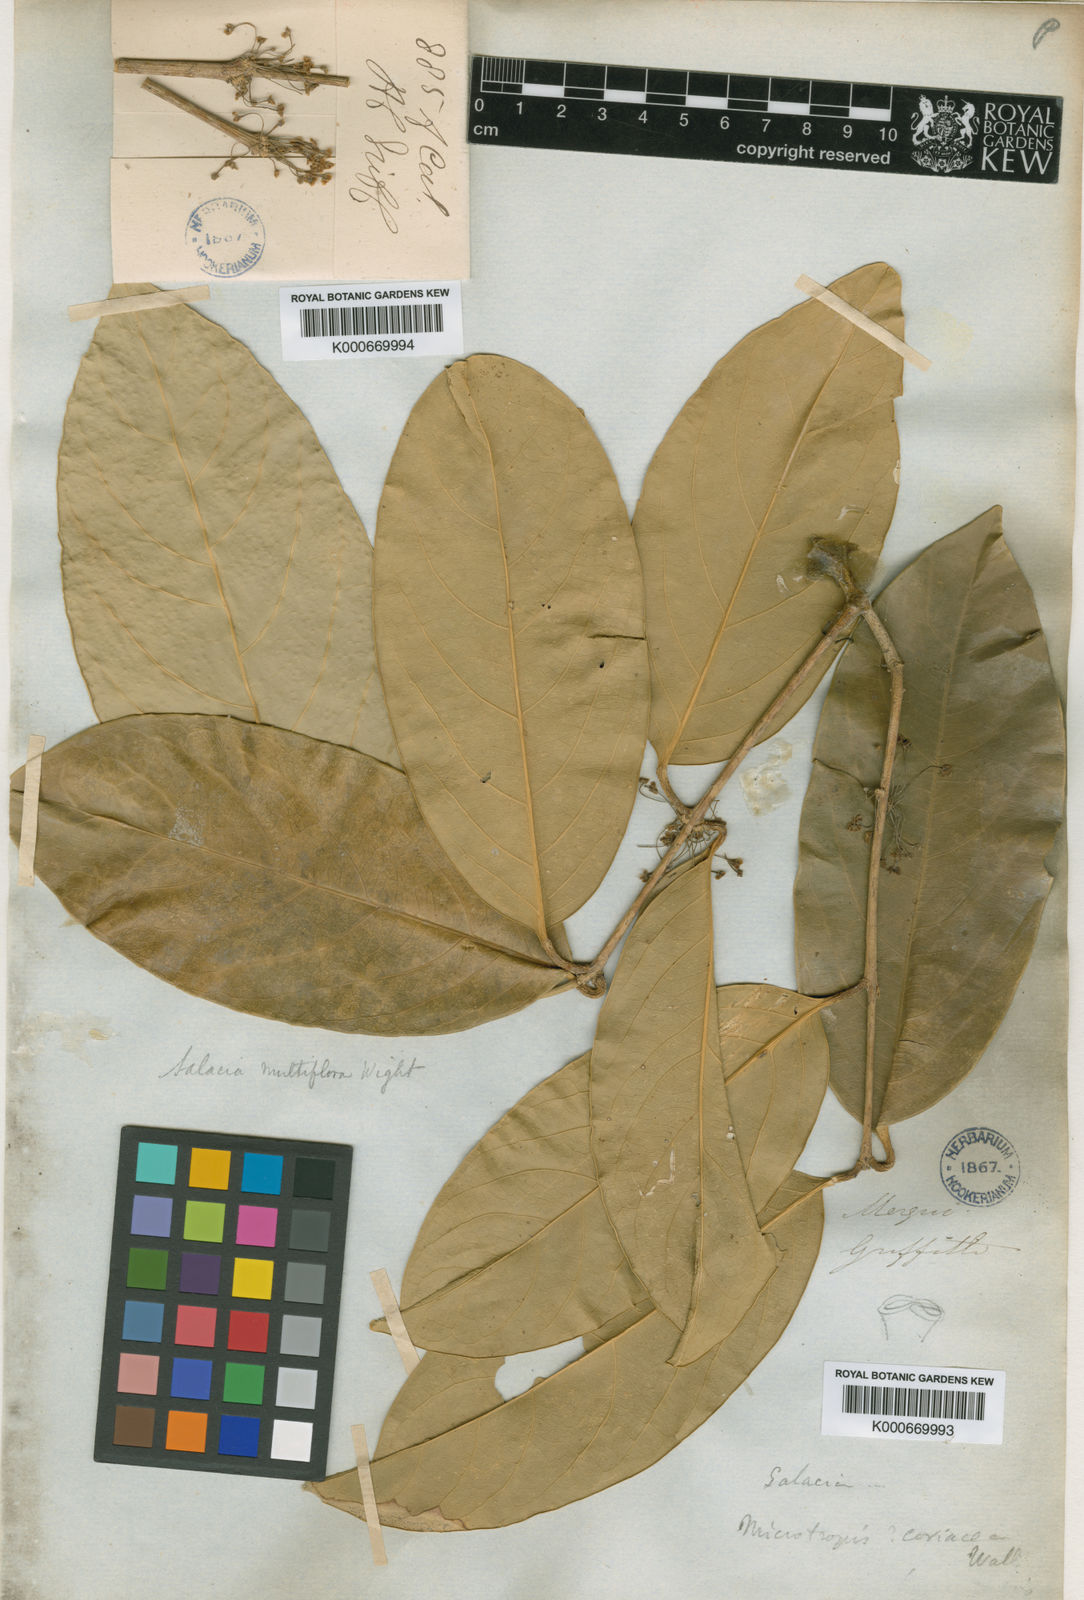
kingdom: Plantae
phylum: Tracheophyta
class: Magnoliopsida
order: Celastrales
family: Celastraceae
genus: Salacia
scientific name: Salacia polyantha
